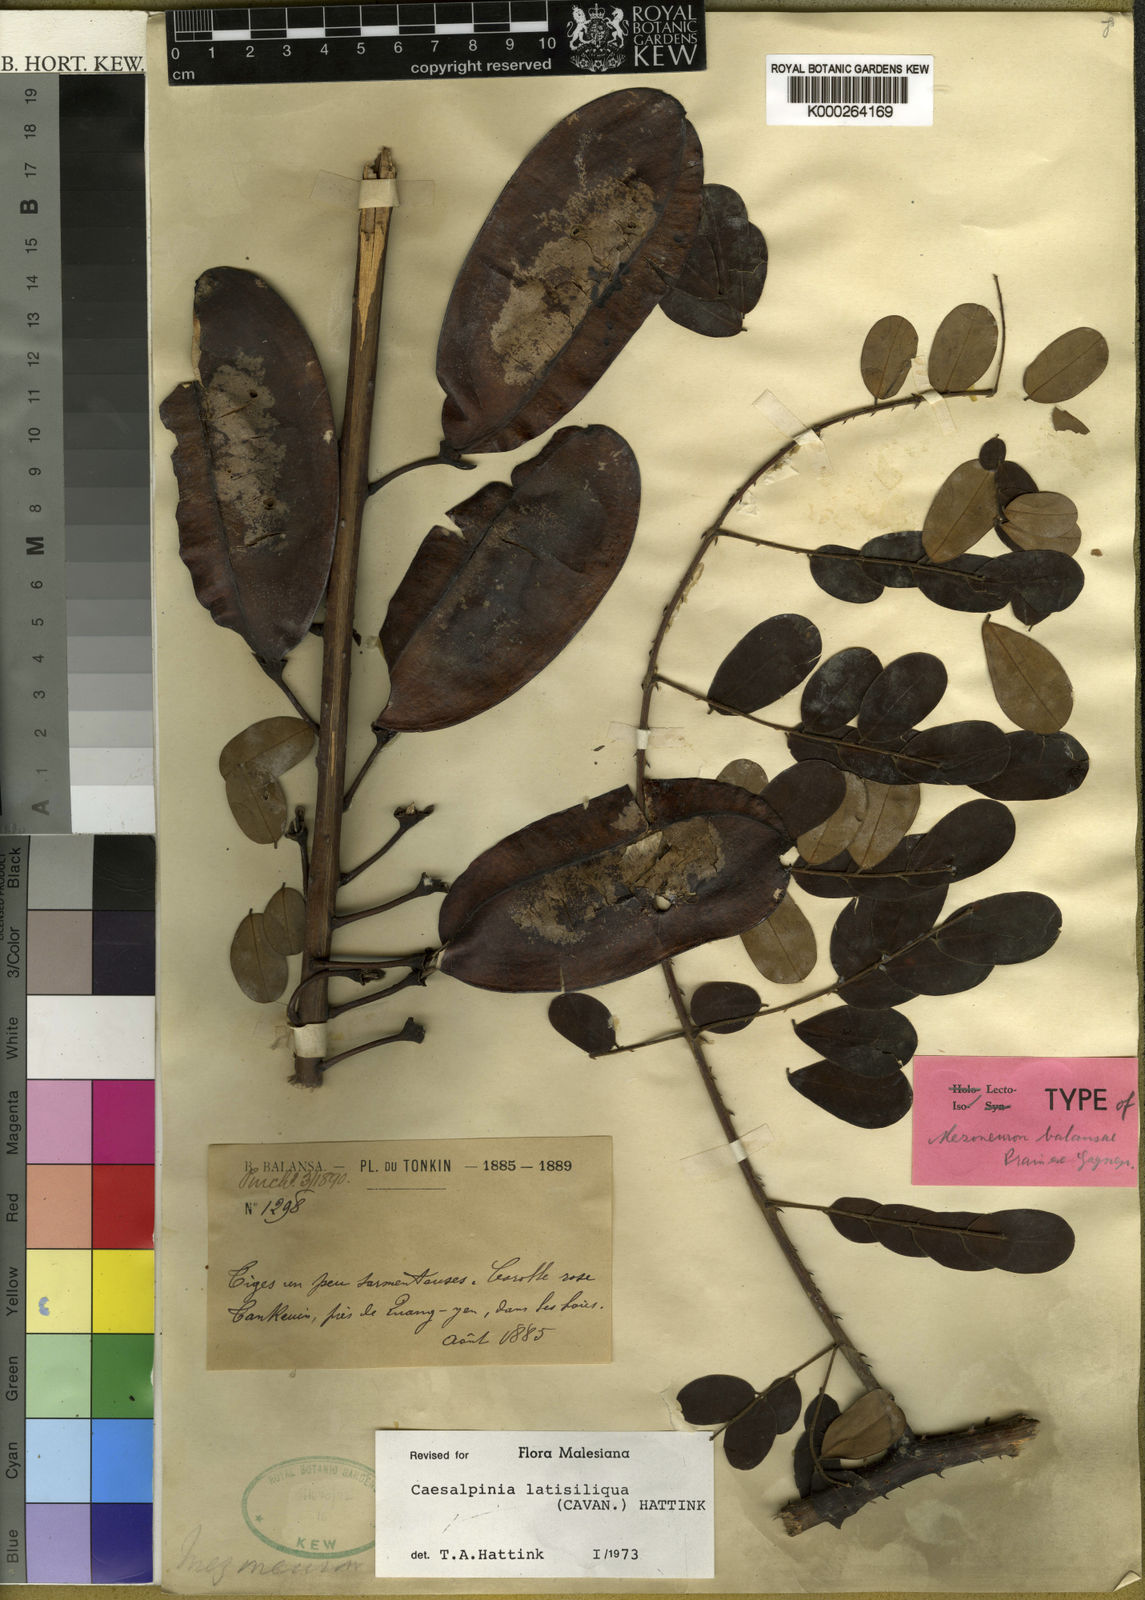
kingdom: Plantae
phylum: Tracheophyta
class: Magnoliopsida
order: Fabales
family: Fabaceae
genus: Mezoneuron
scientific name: Mezoneuron latisiliquum
